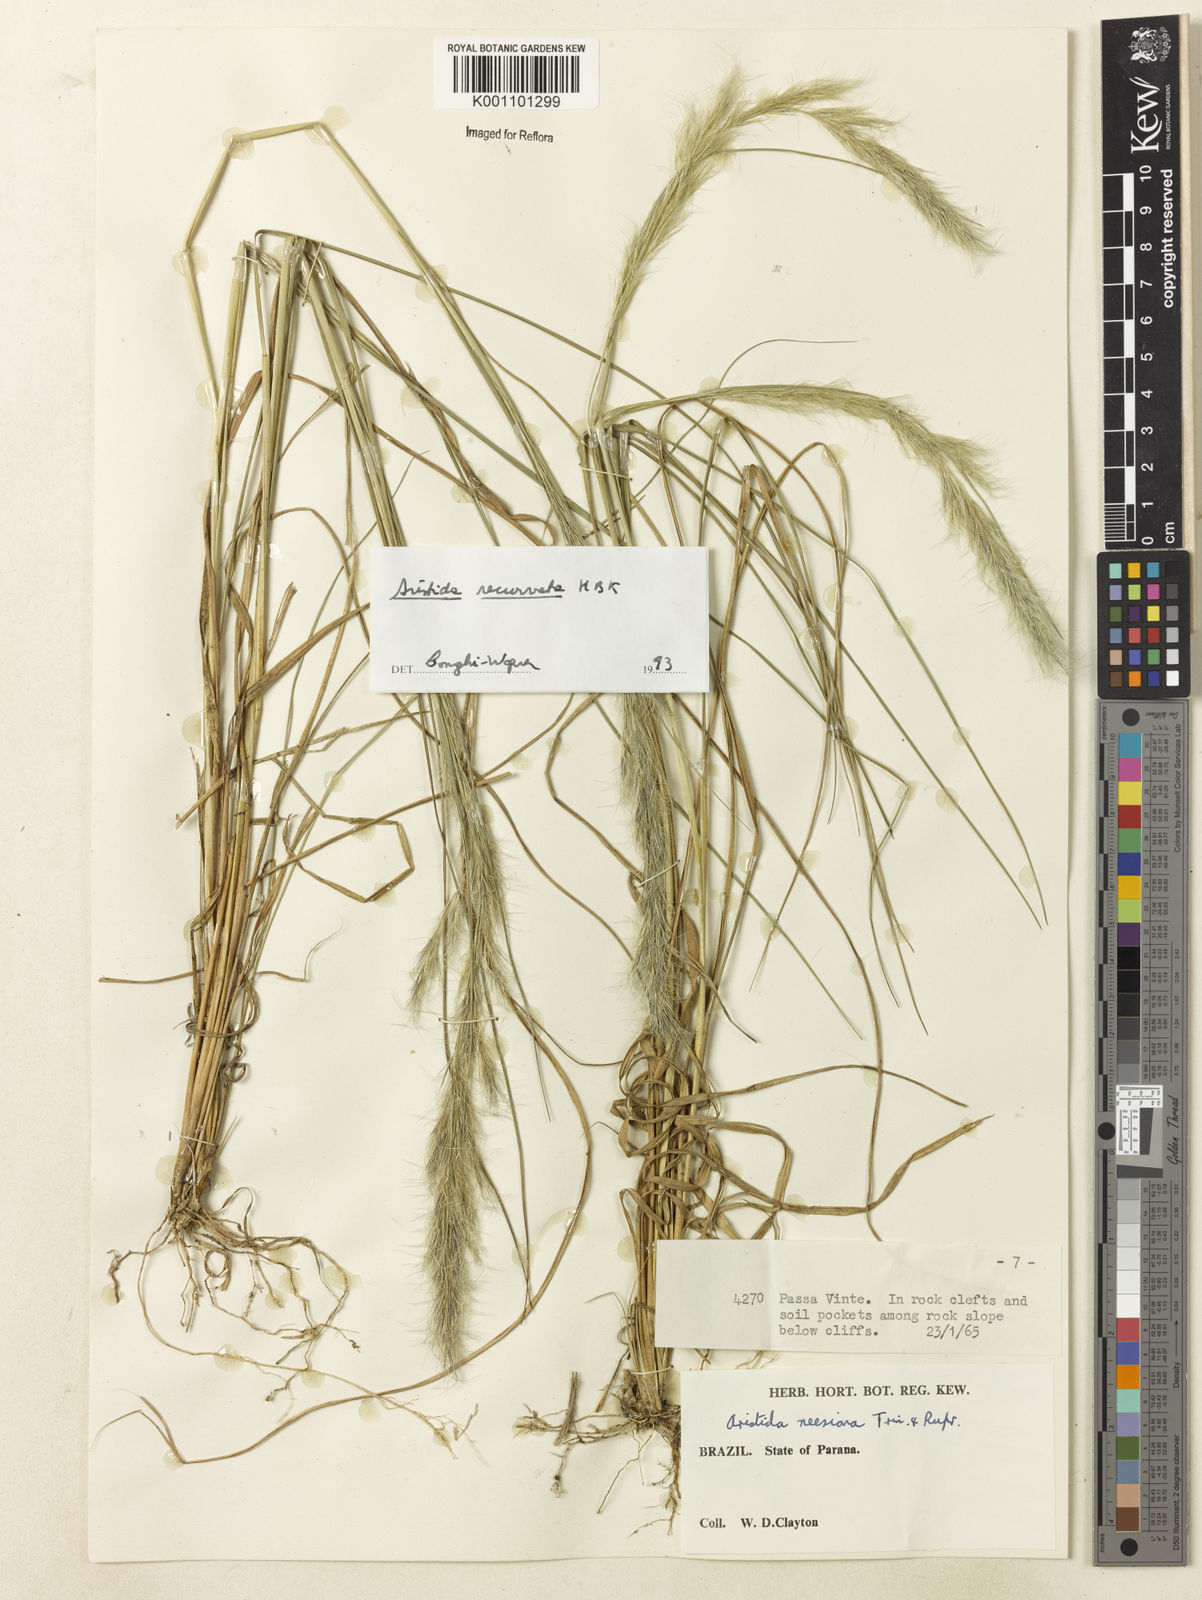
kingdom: Plantae
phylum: Tracheophyta
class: Liliopsida
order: Poales
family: Poaceae
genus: Aristida
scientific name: Aristida recurvata
